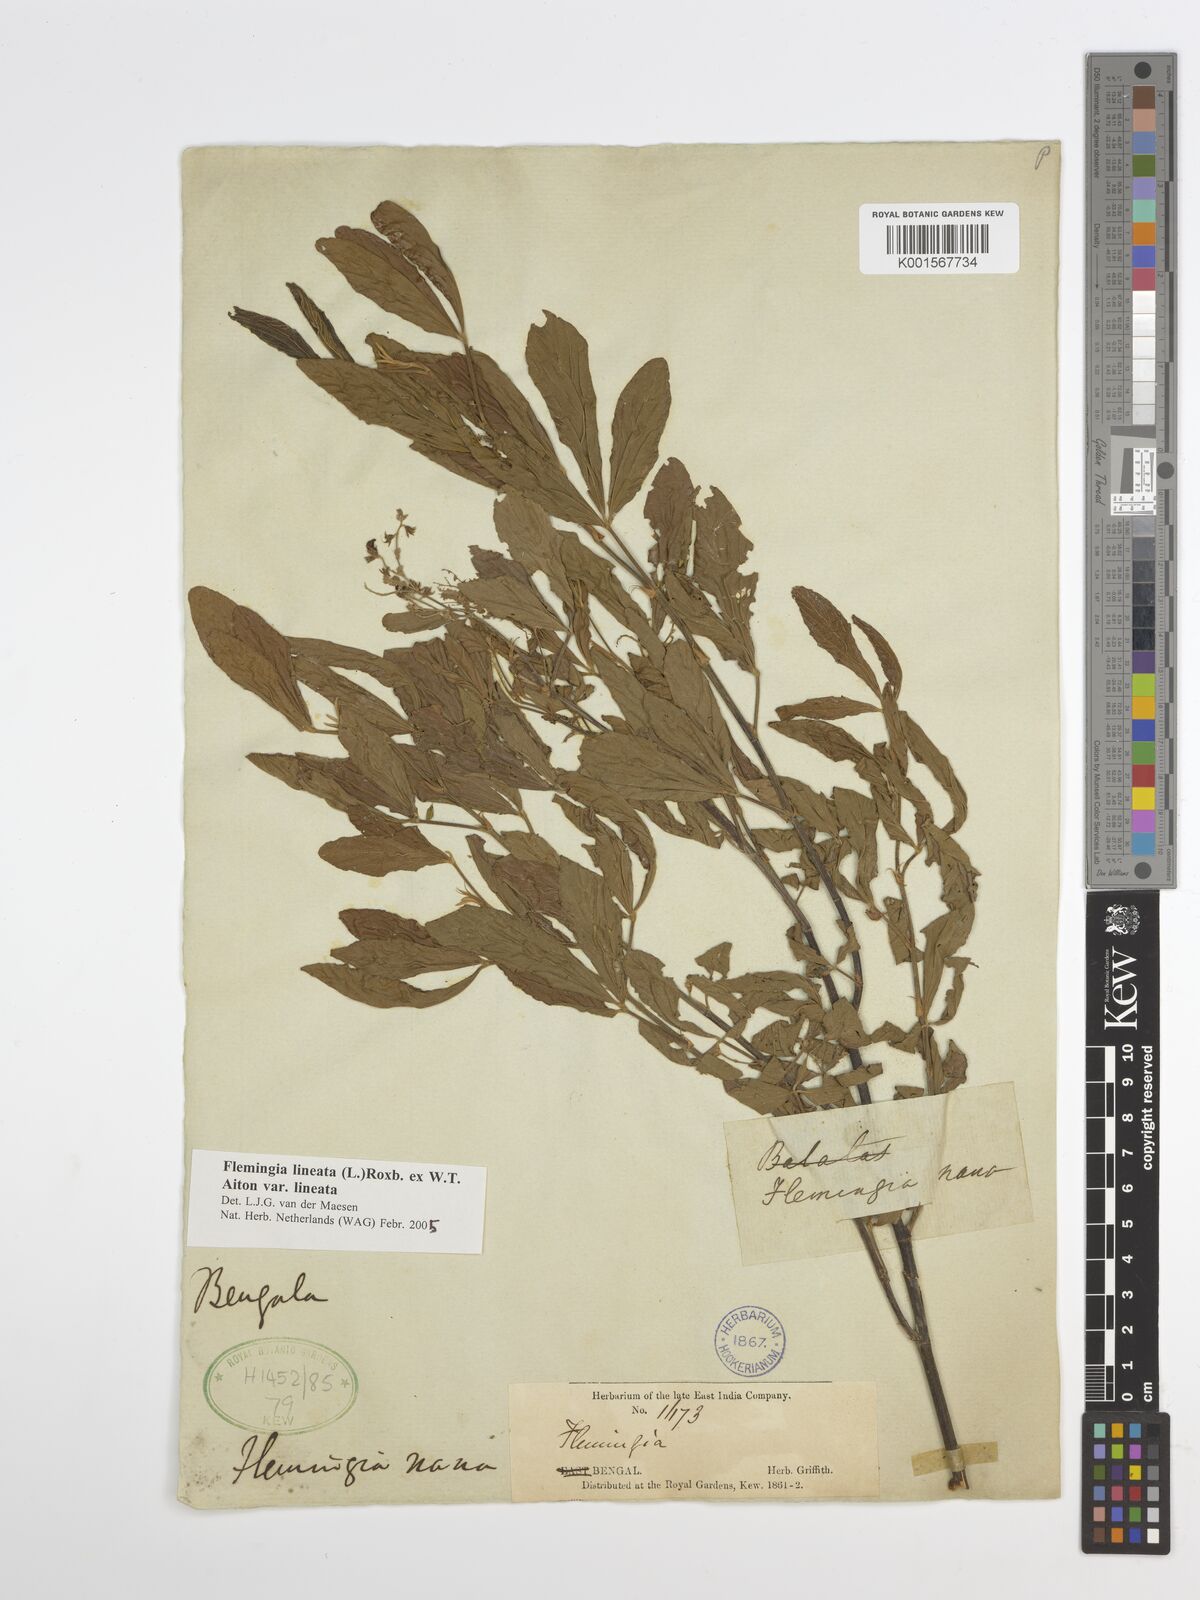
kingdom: Plantae
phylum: Tracheophyta
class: Magnoliopsida
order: Fabales
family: Fabaceae
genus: Flemingia
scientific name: Flemingia lineata
